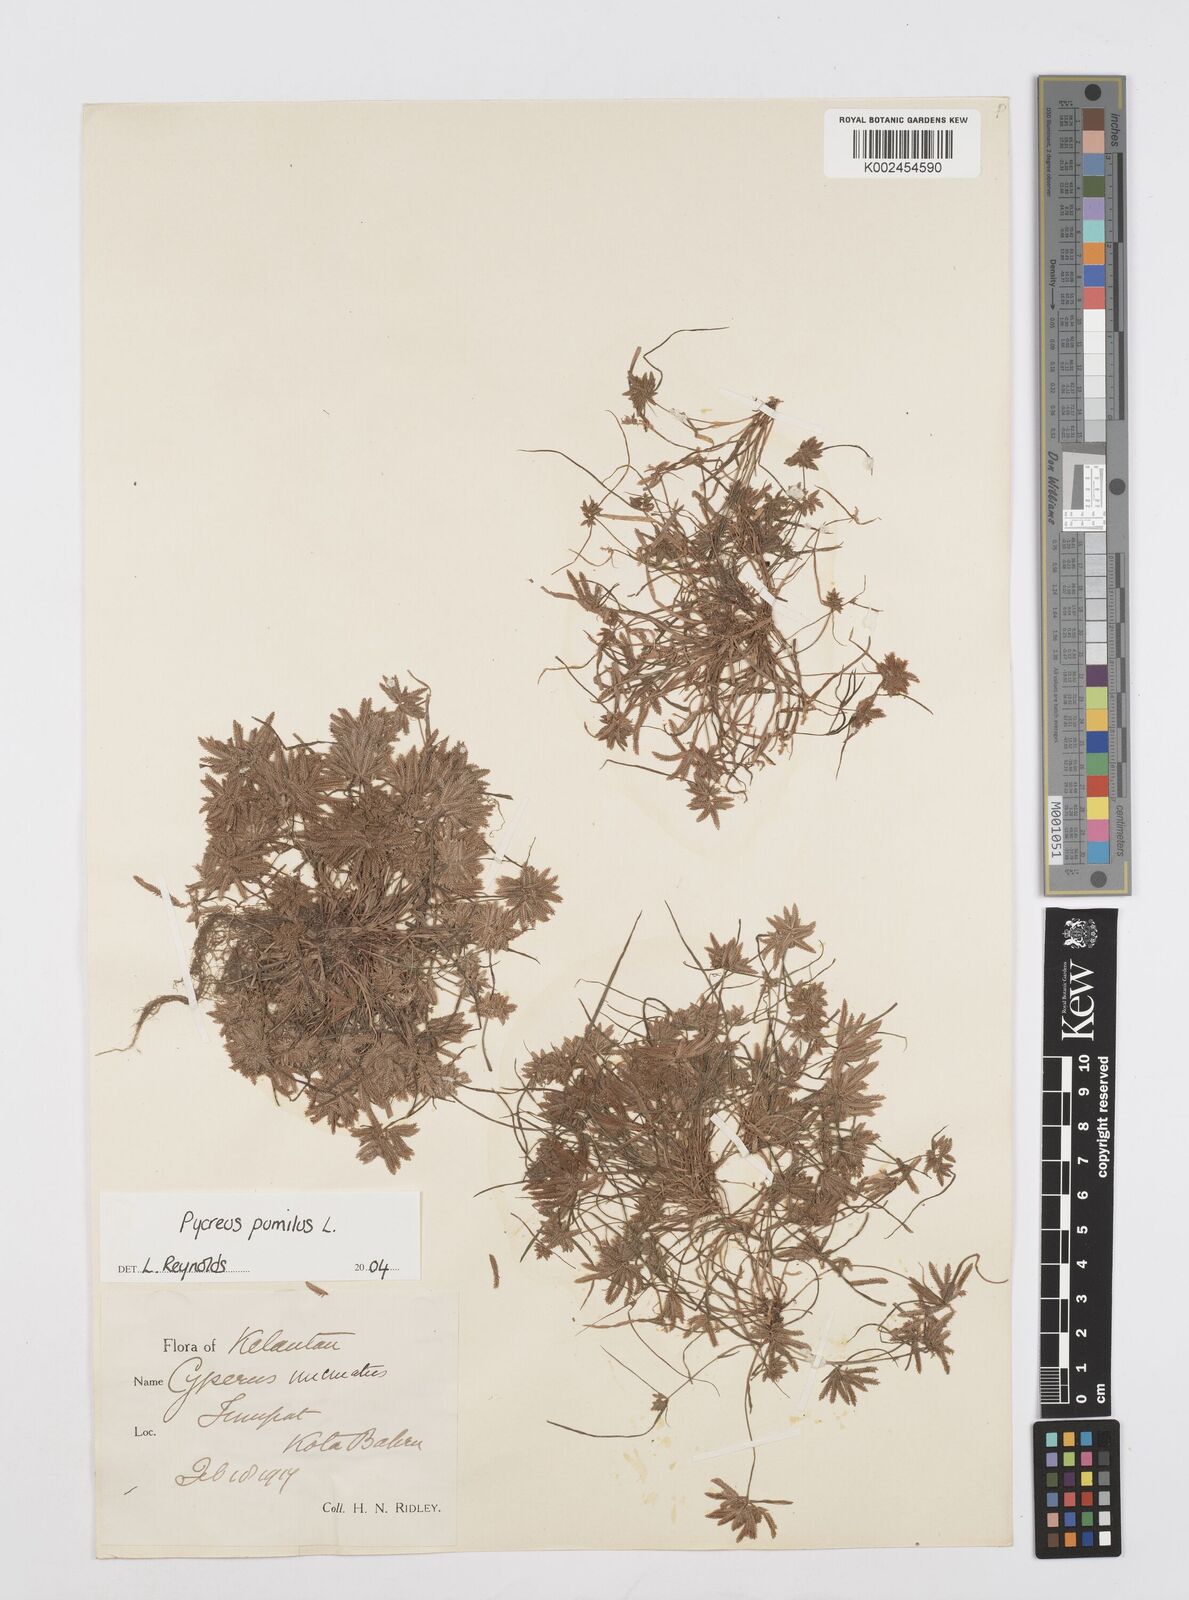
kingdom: Plantae
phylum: Tracheophyta
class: Liliopsida
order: Poales
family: Cyperaceae
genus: Cyperus
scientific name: Cyperus pumilus
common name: Low flatsedge
